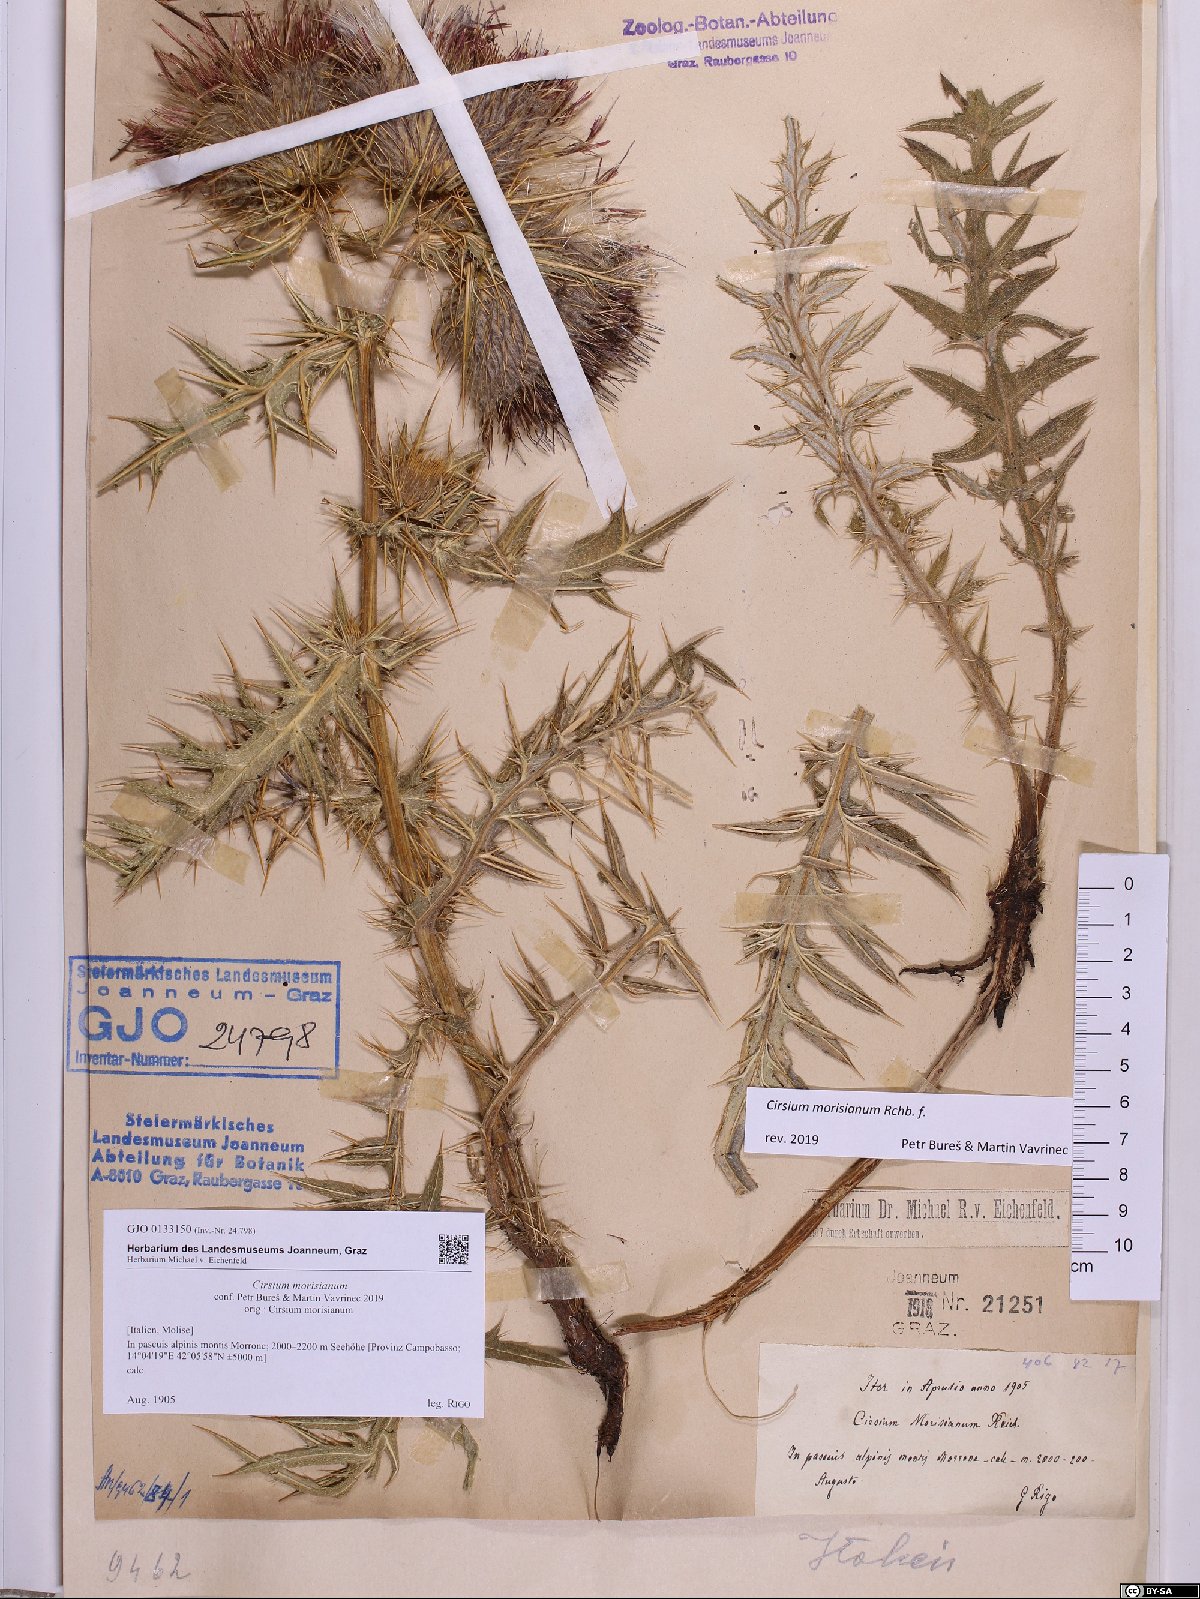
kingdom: Plantae
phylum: Tracheophyta
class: Magnoliopsida
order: Asterales
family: Asteraceae
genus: Lophiolepis
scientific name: Lophiolepis morisiana
